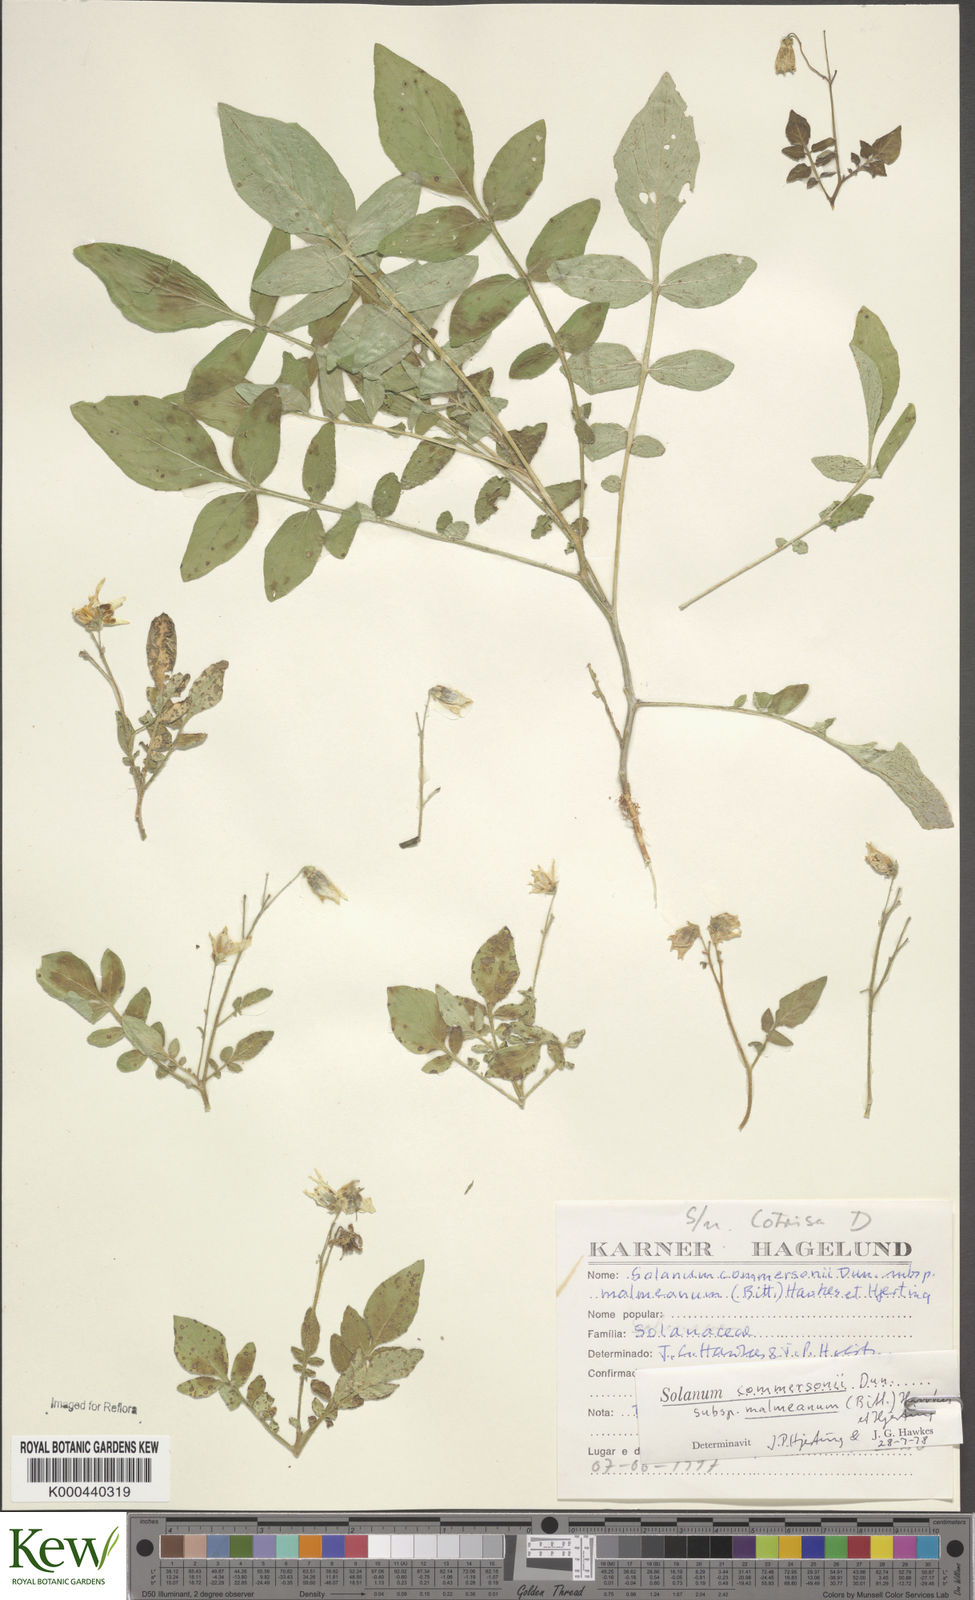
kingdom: Plantae
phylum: Tracheophyta
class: Magnoliopsida
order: Solanales
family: Solanaceae
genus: Solanum
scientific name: Solanum commersonii
